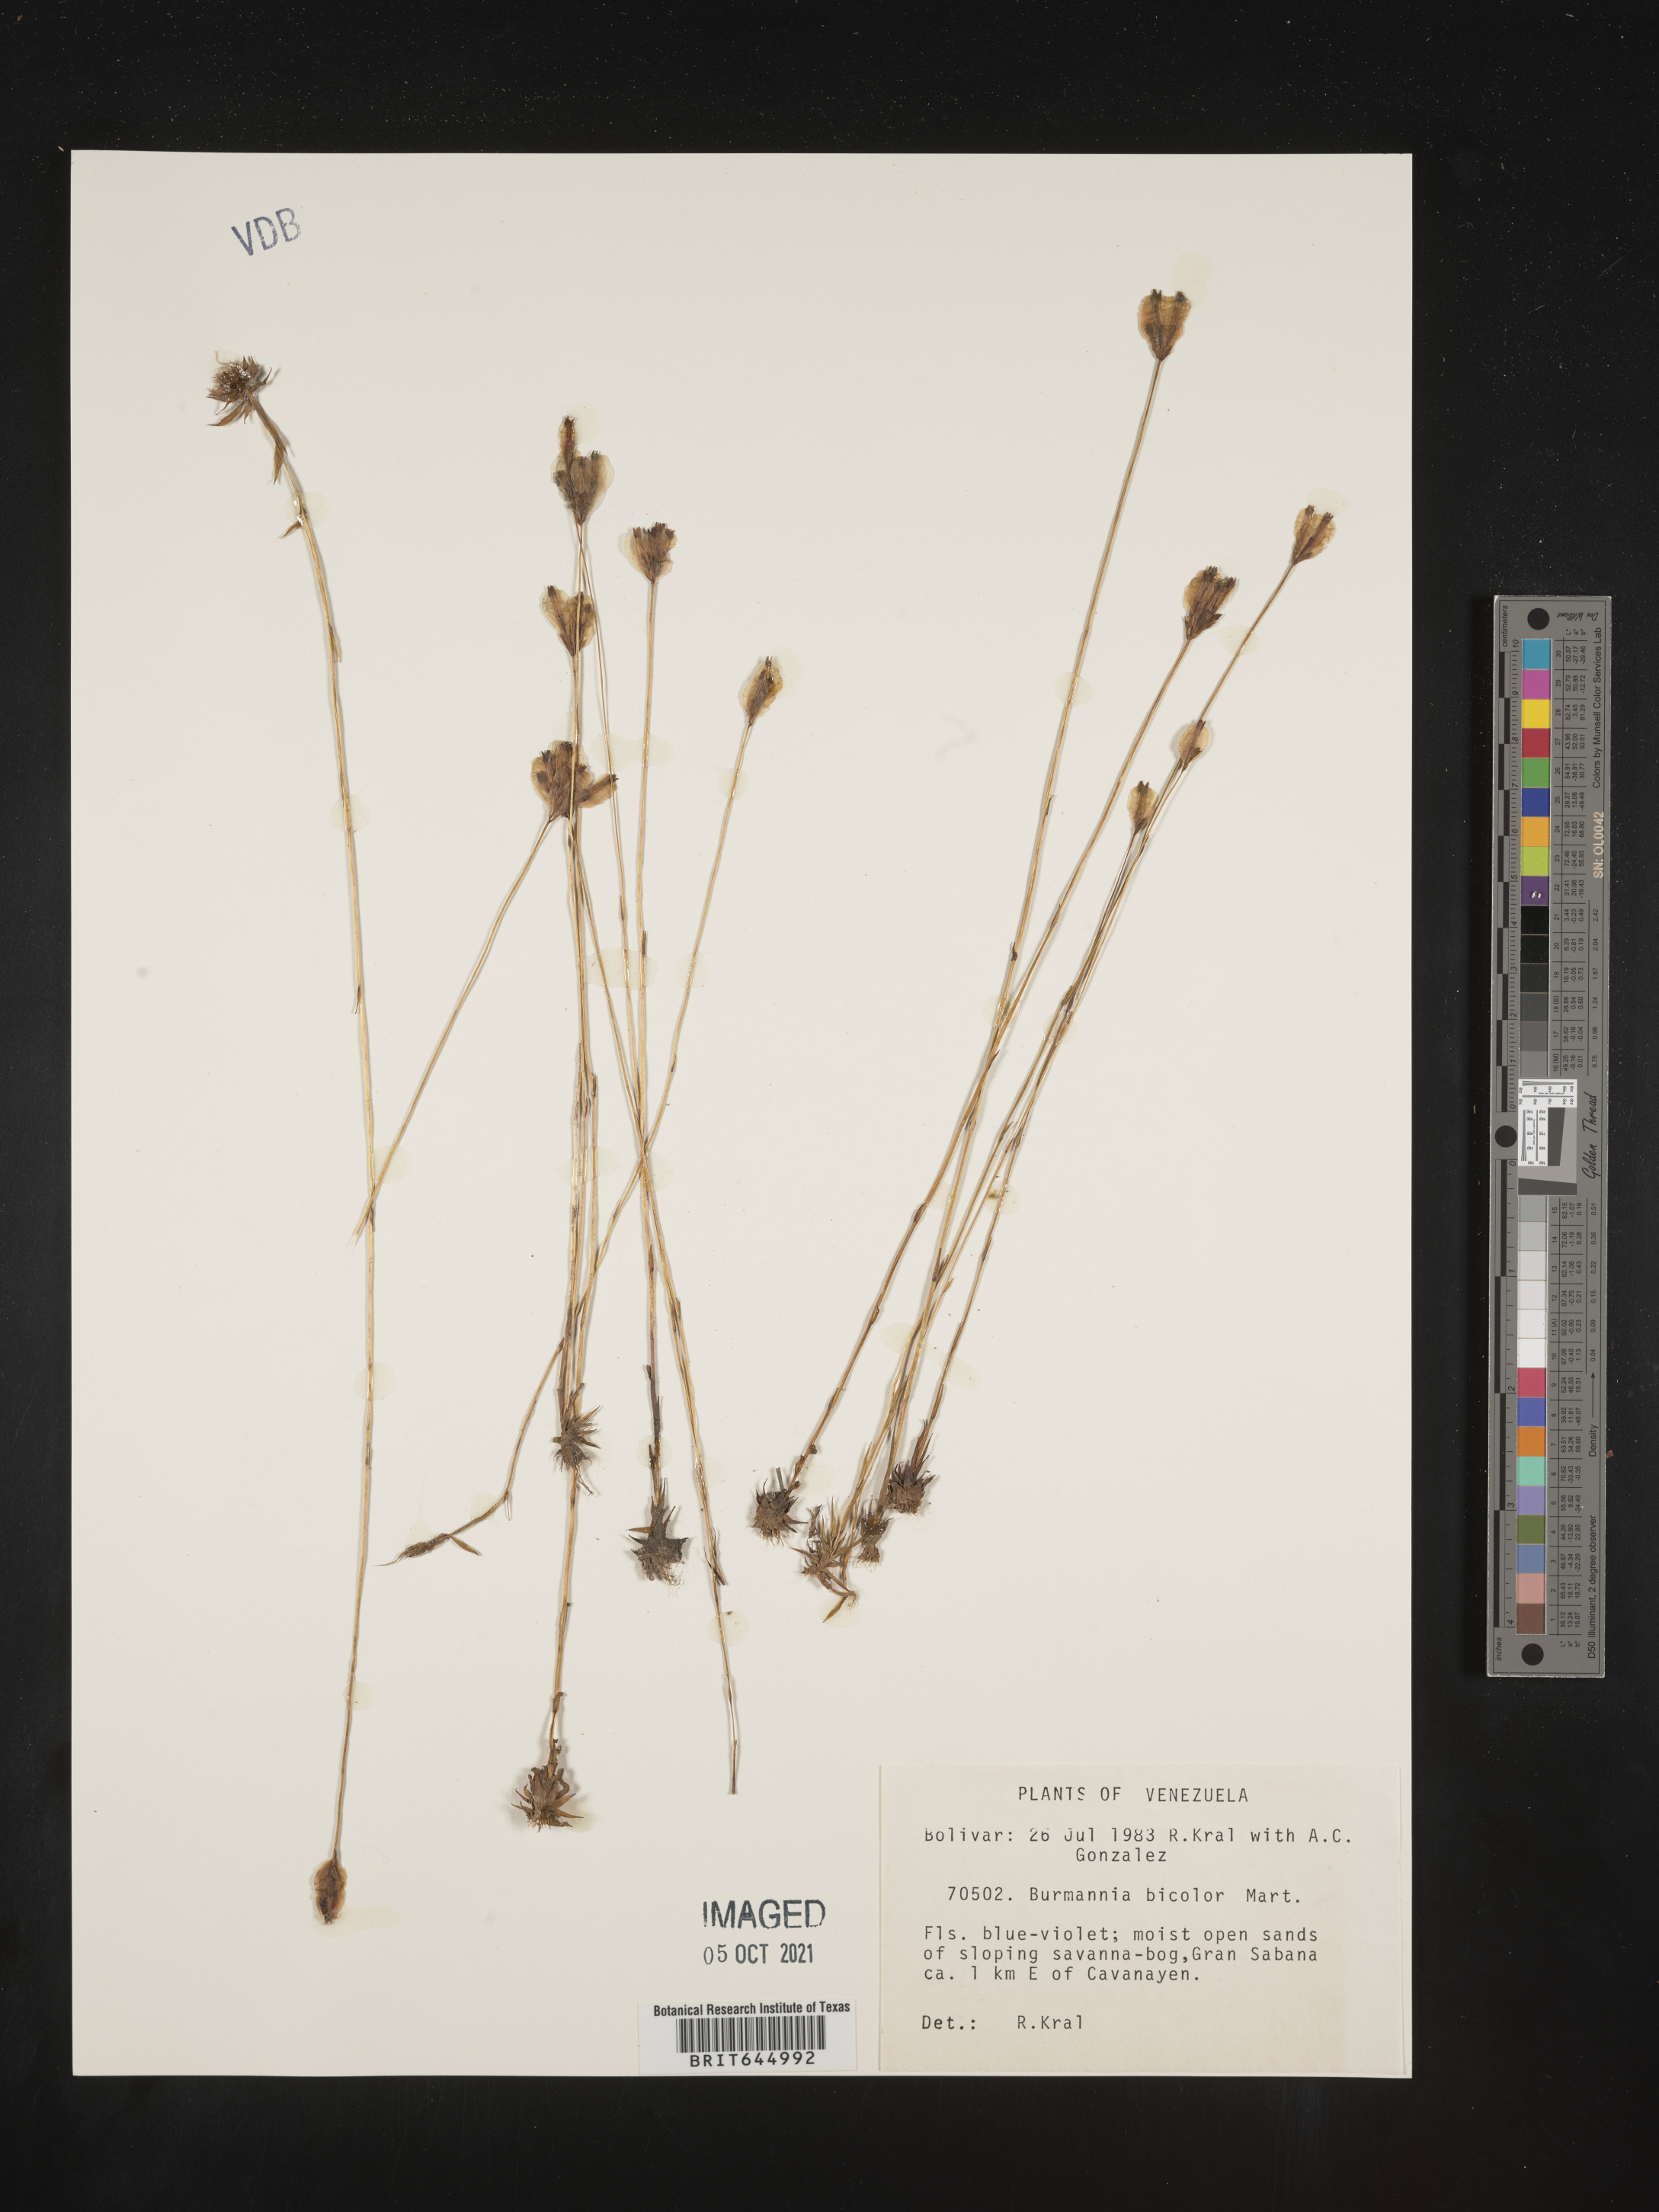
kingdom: Plantae
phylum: Tracheophyta
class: Liliopsida
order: Dioscoreales
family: Burmanniaceae
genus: Burmannia
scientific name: Burmannia bicolor
